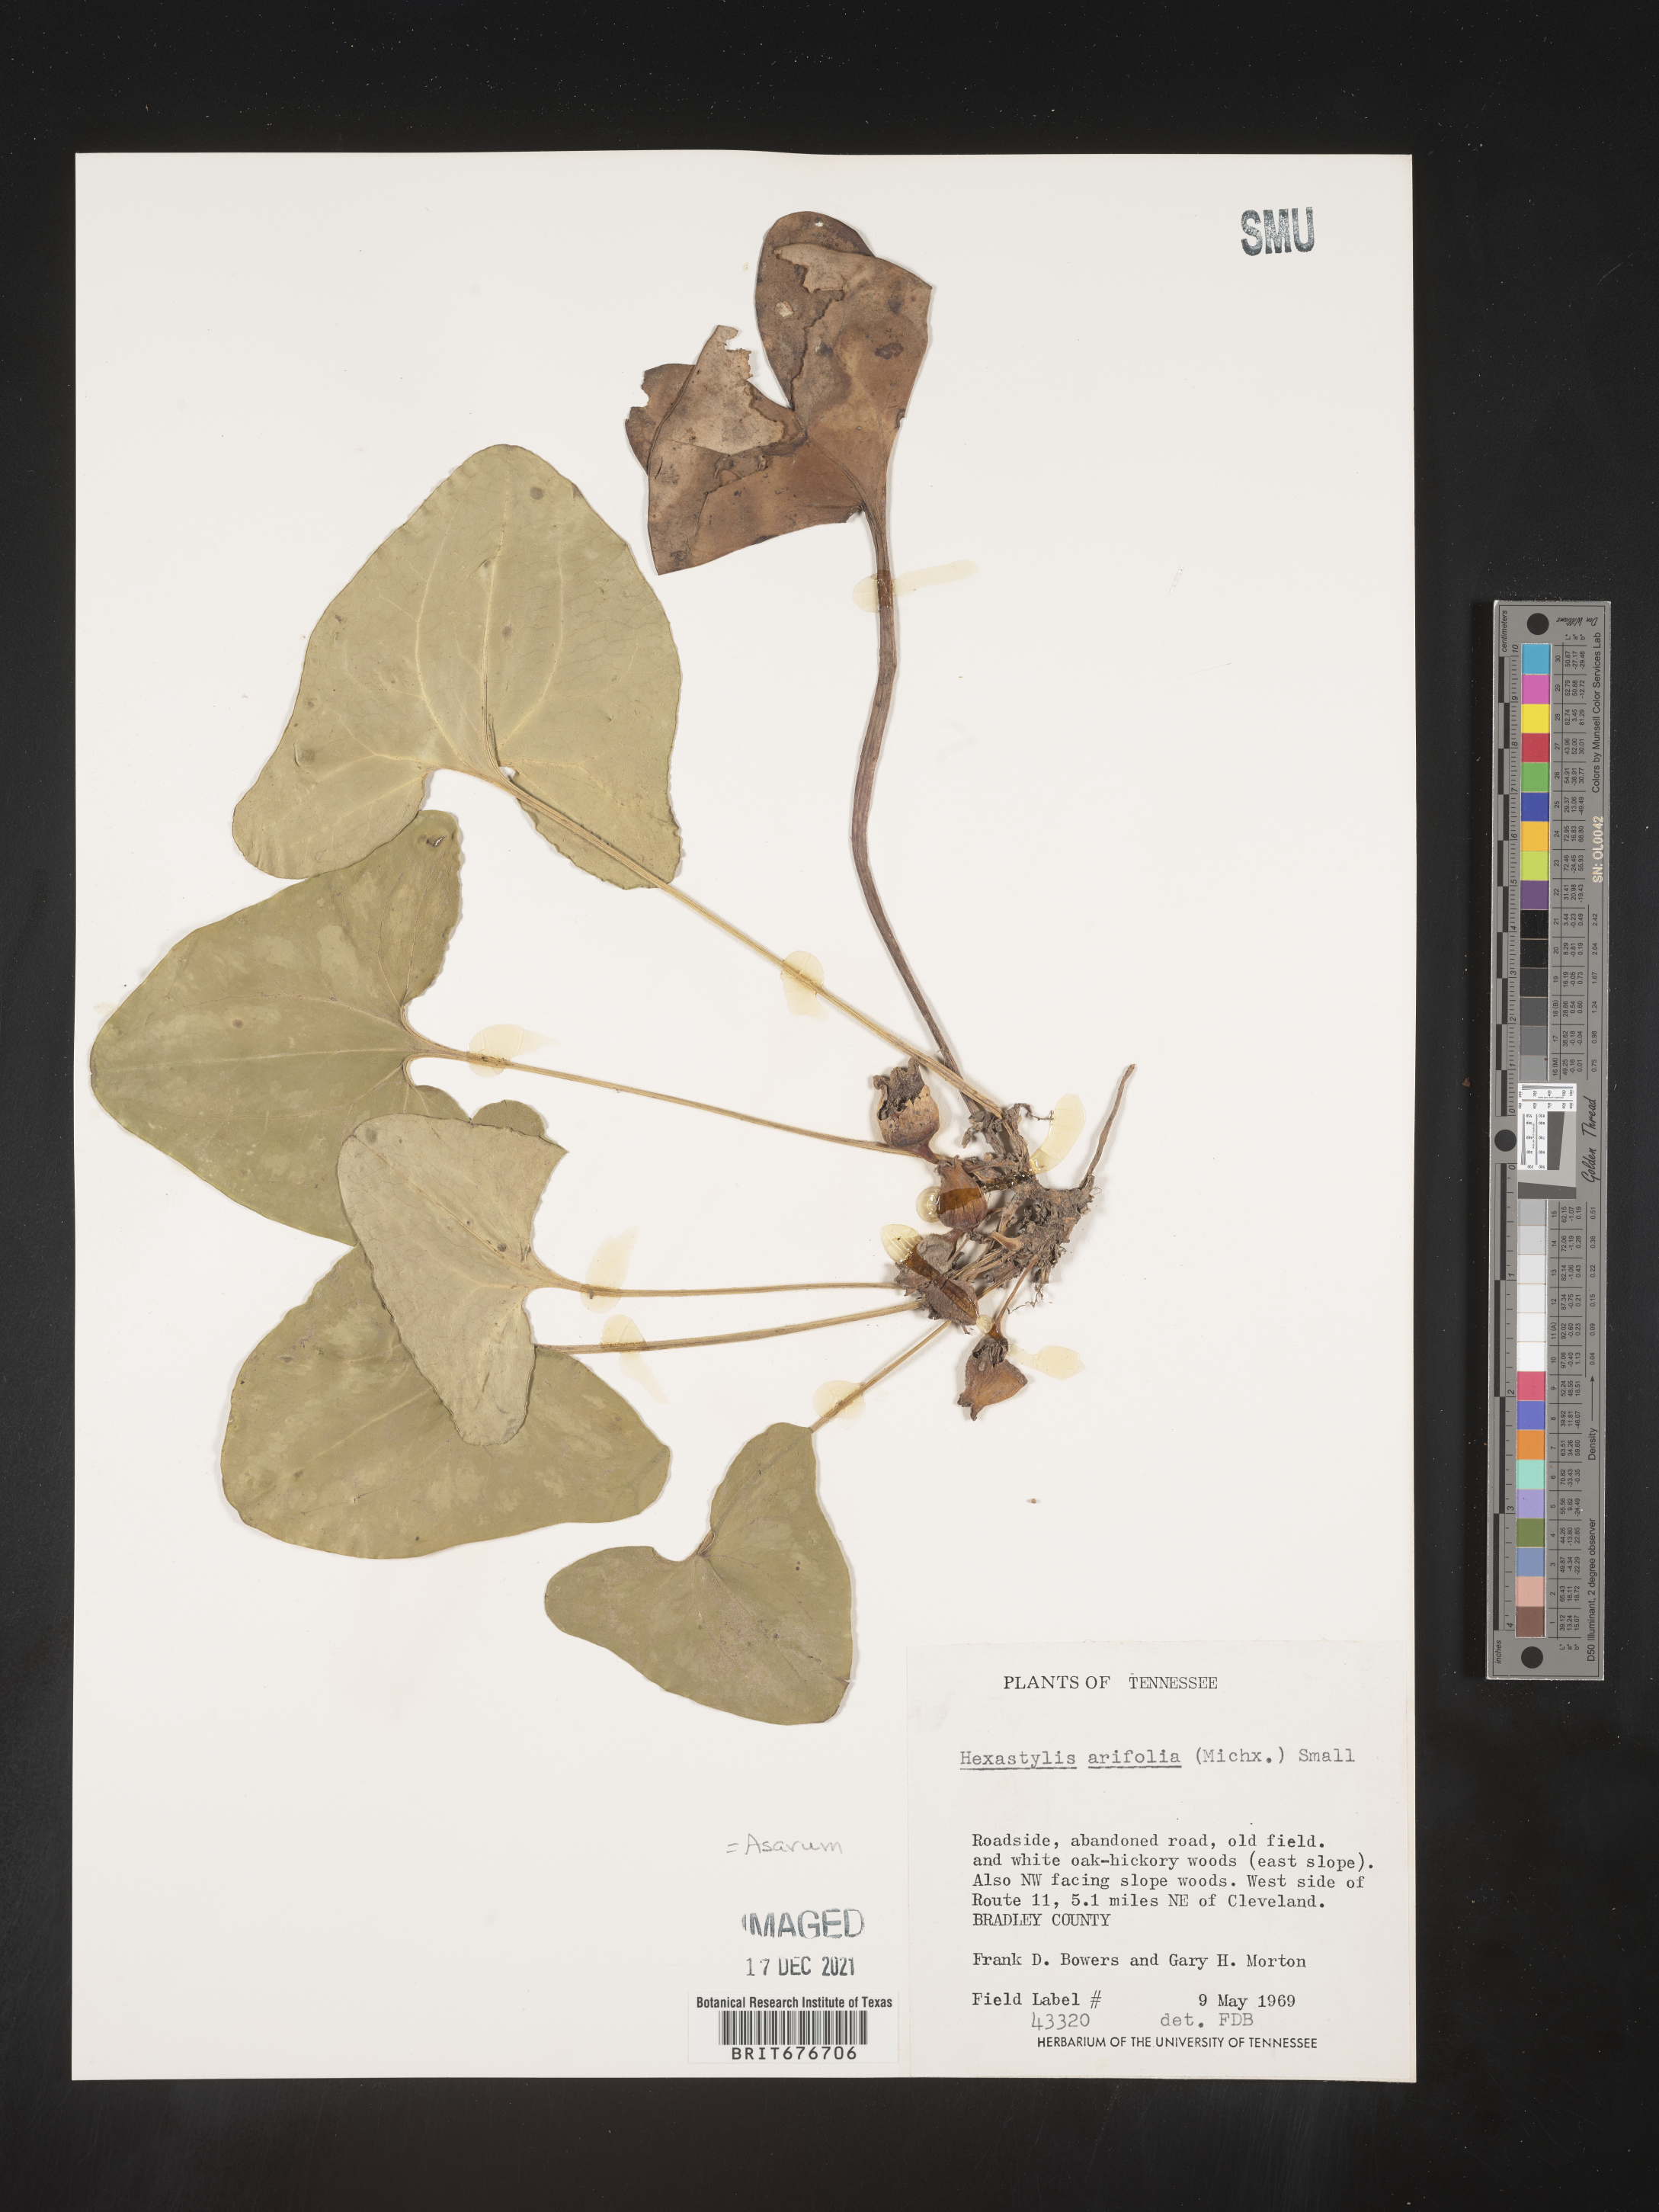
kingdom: Plantae
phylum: Tracheophyta
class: Magnoliopsida
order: Piperales
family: Aristolochiaceae
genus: Hexastylis
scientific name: Hexastylis arifolia
